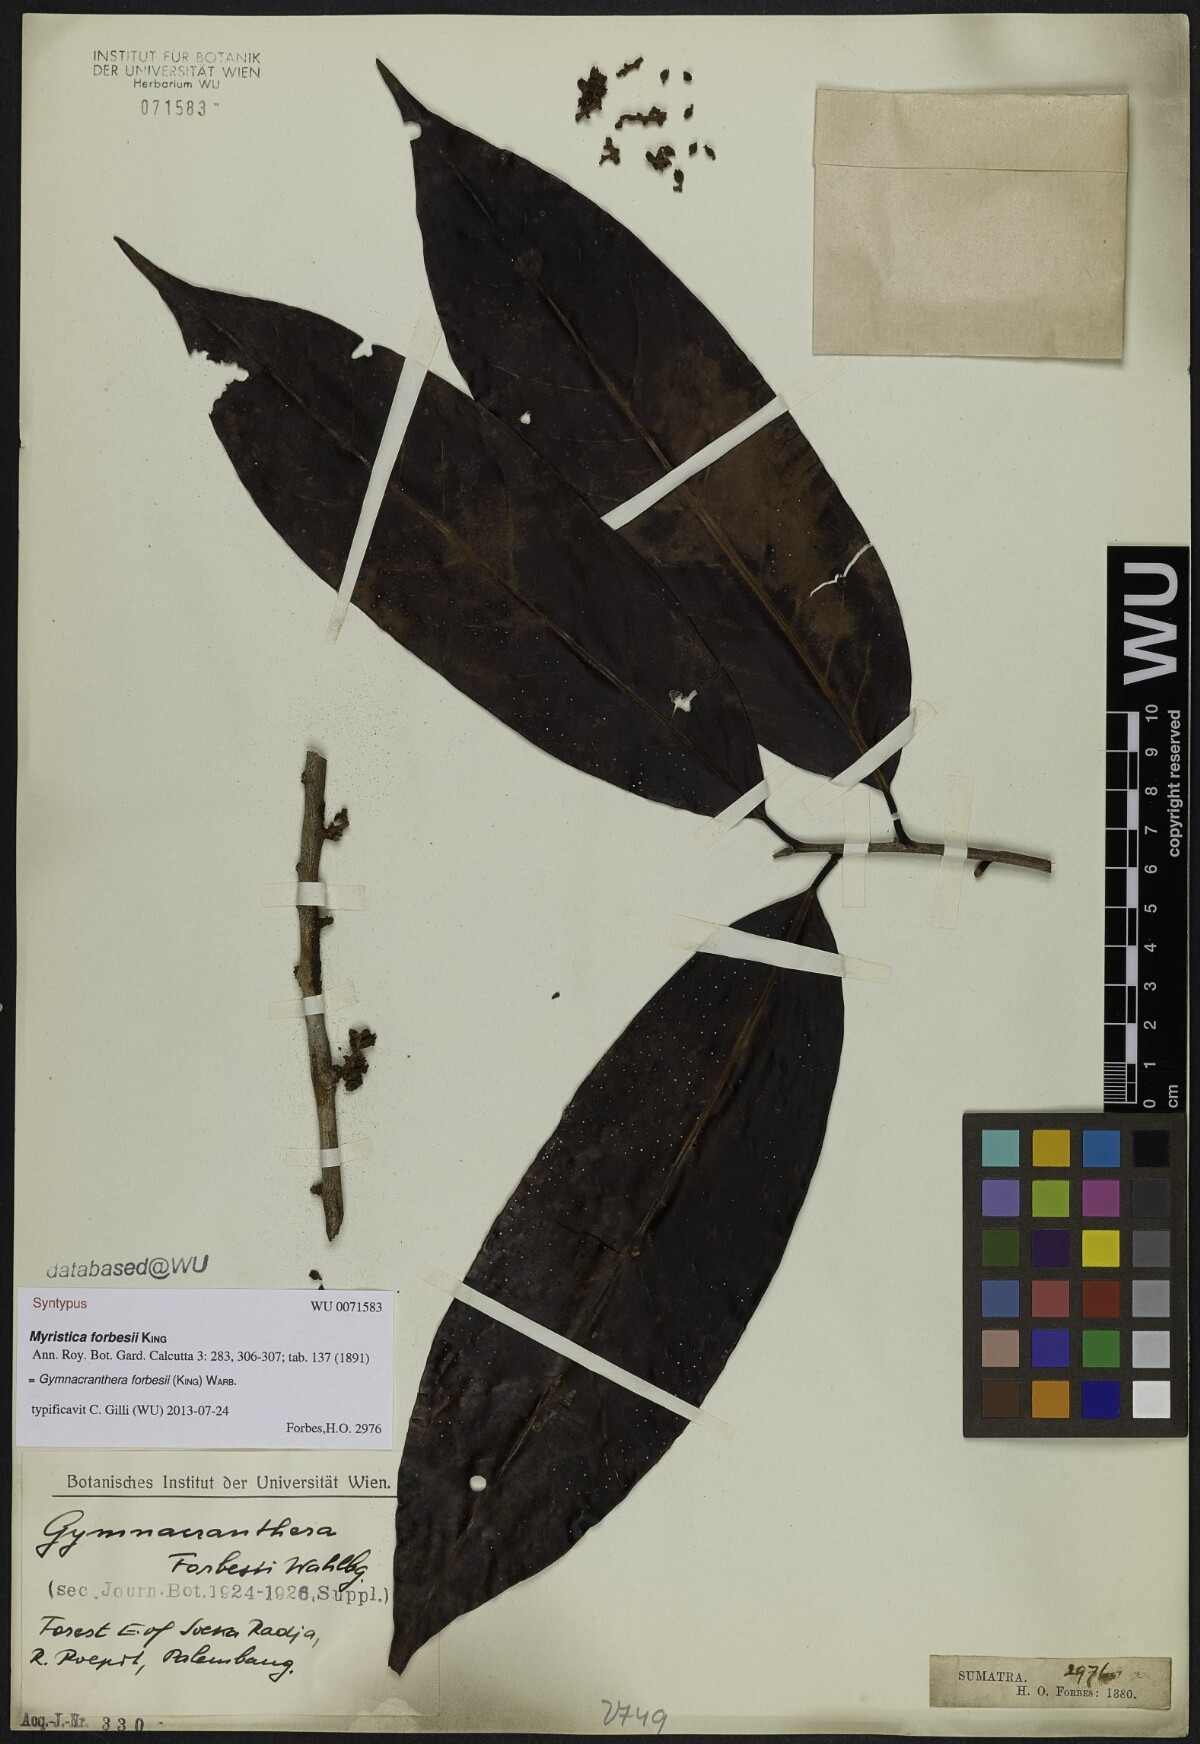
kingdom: Plantae
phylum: Tracheophyta
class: Magnoliopsida
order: Magnoliales
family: Myristicaceae
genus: Gymnacranthera
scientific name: Gymnacranthera forbesii
